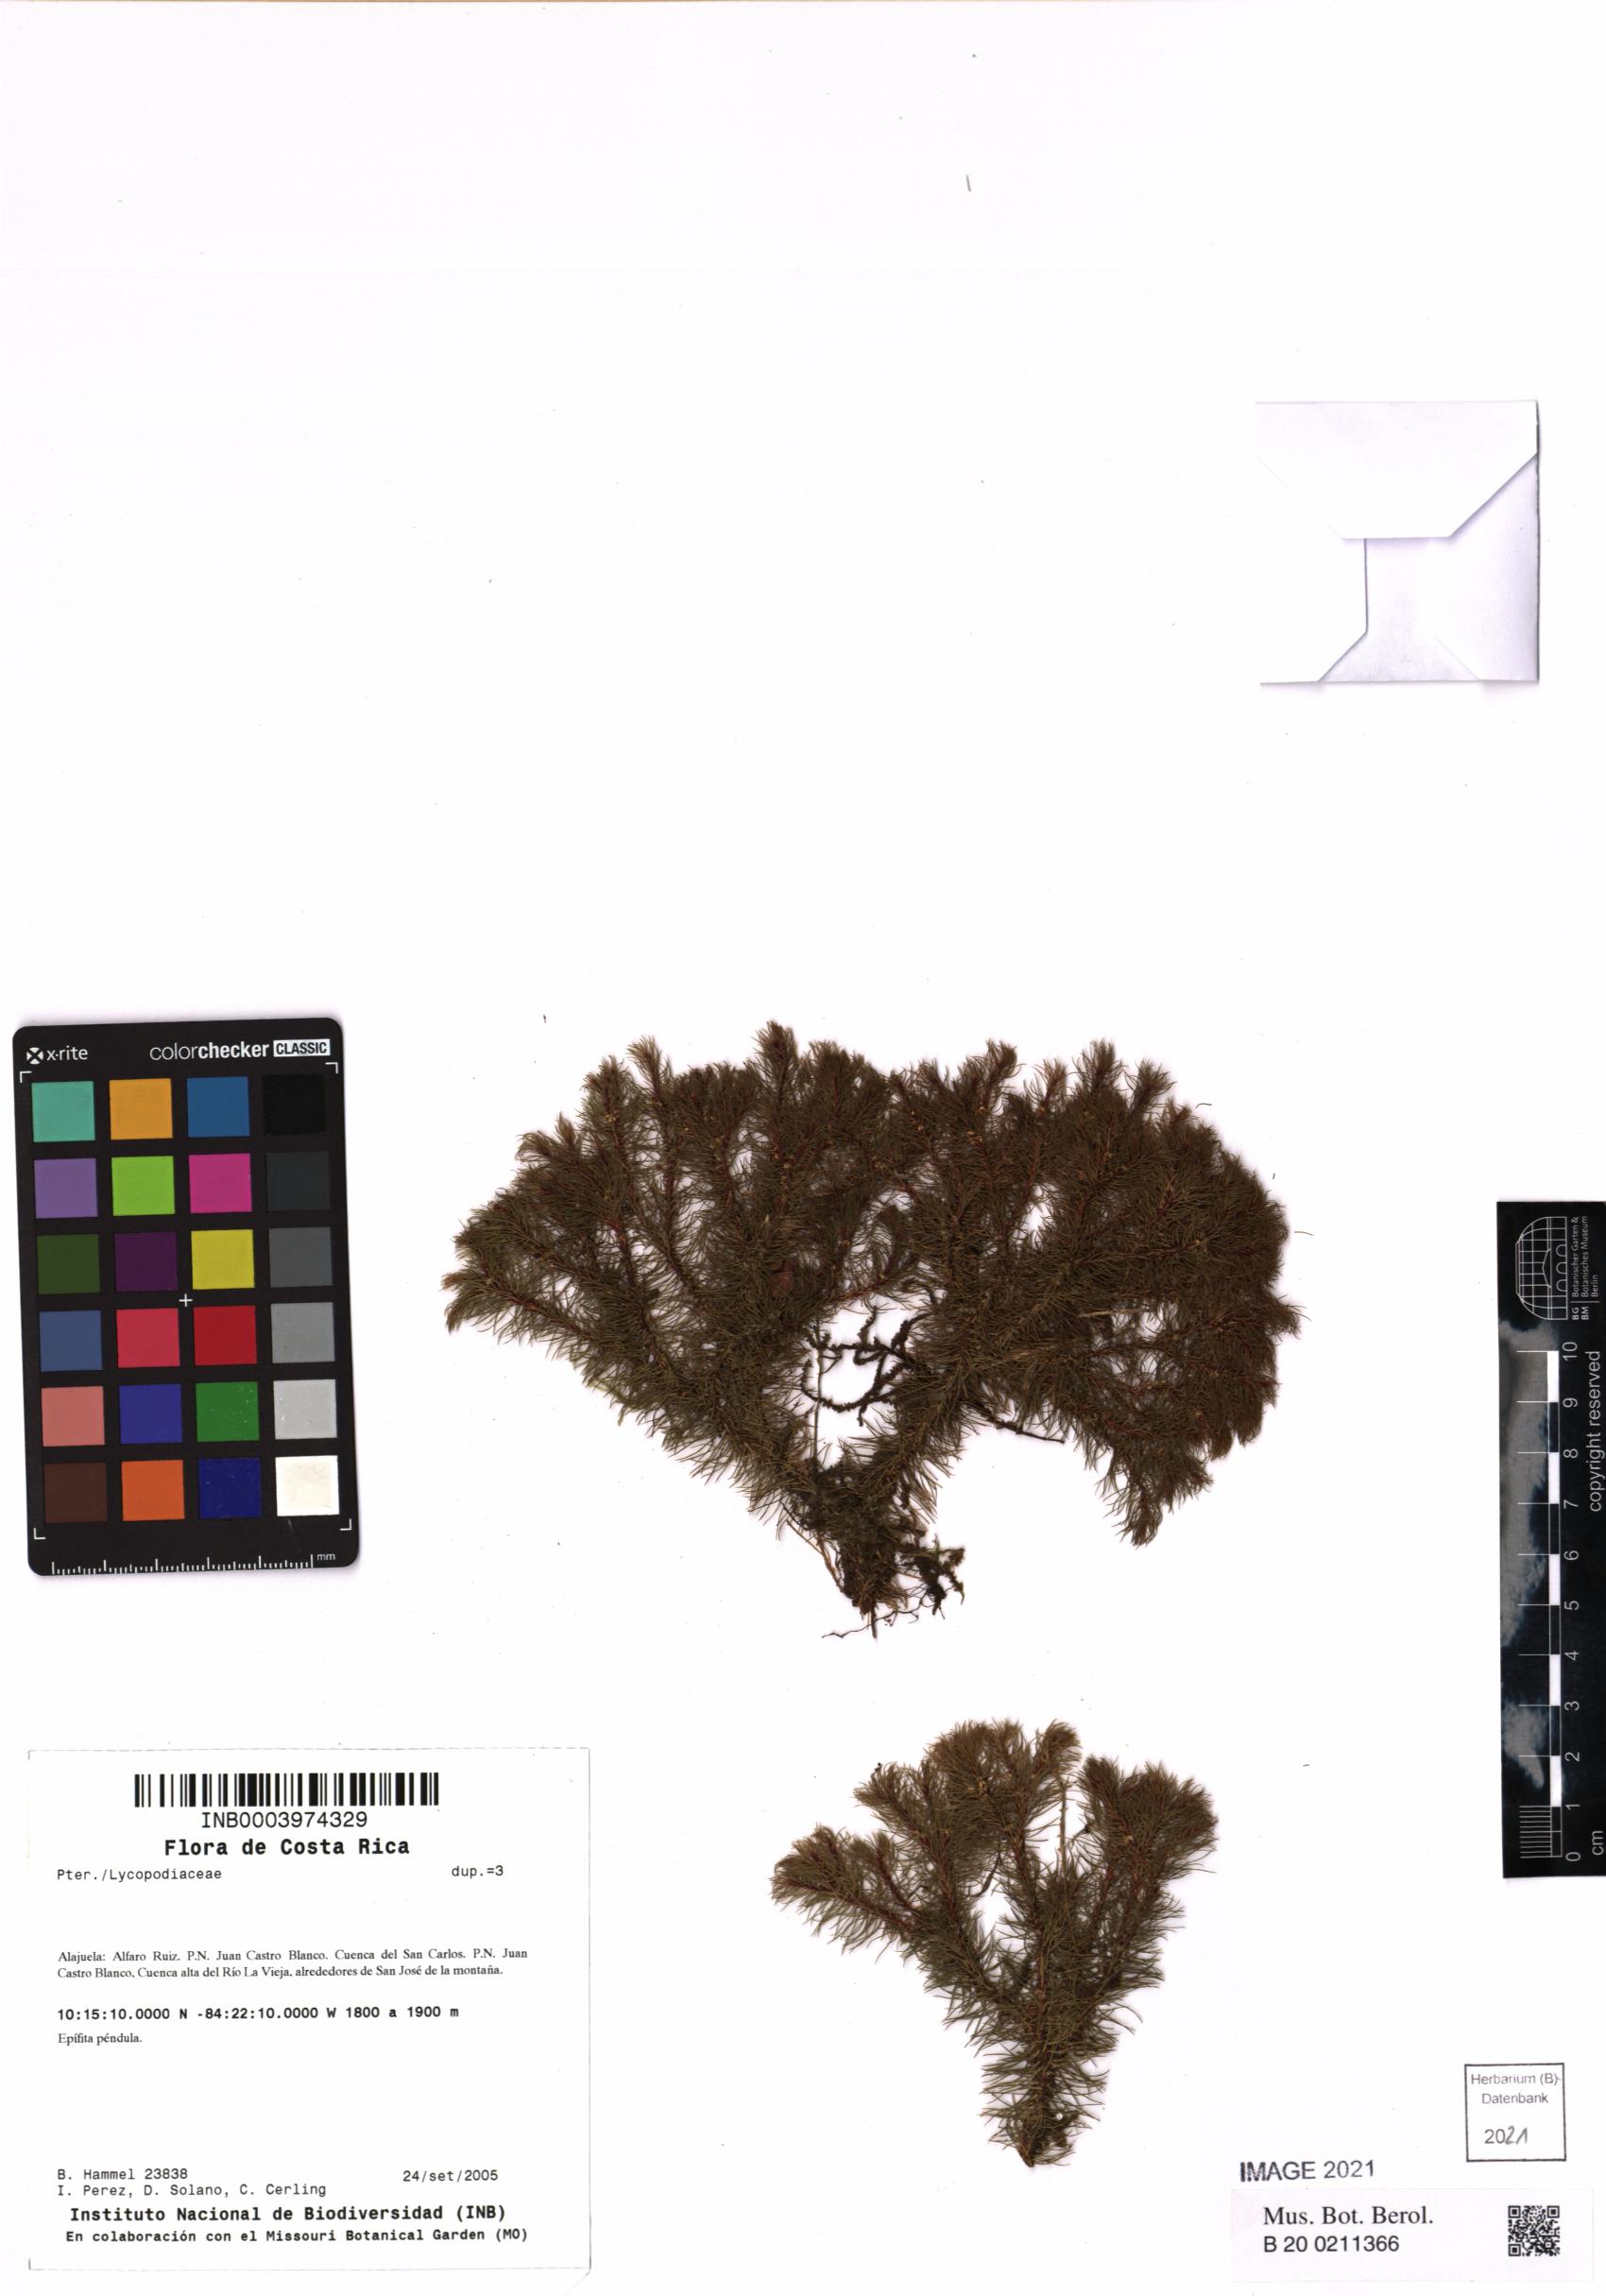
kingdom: Plantae
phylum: Tracheophyta
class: Lycopodiopsida
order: Lycopodiales
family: Lycopodiaceae
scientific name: Lycopodiaceae
